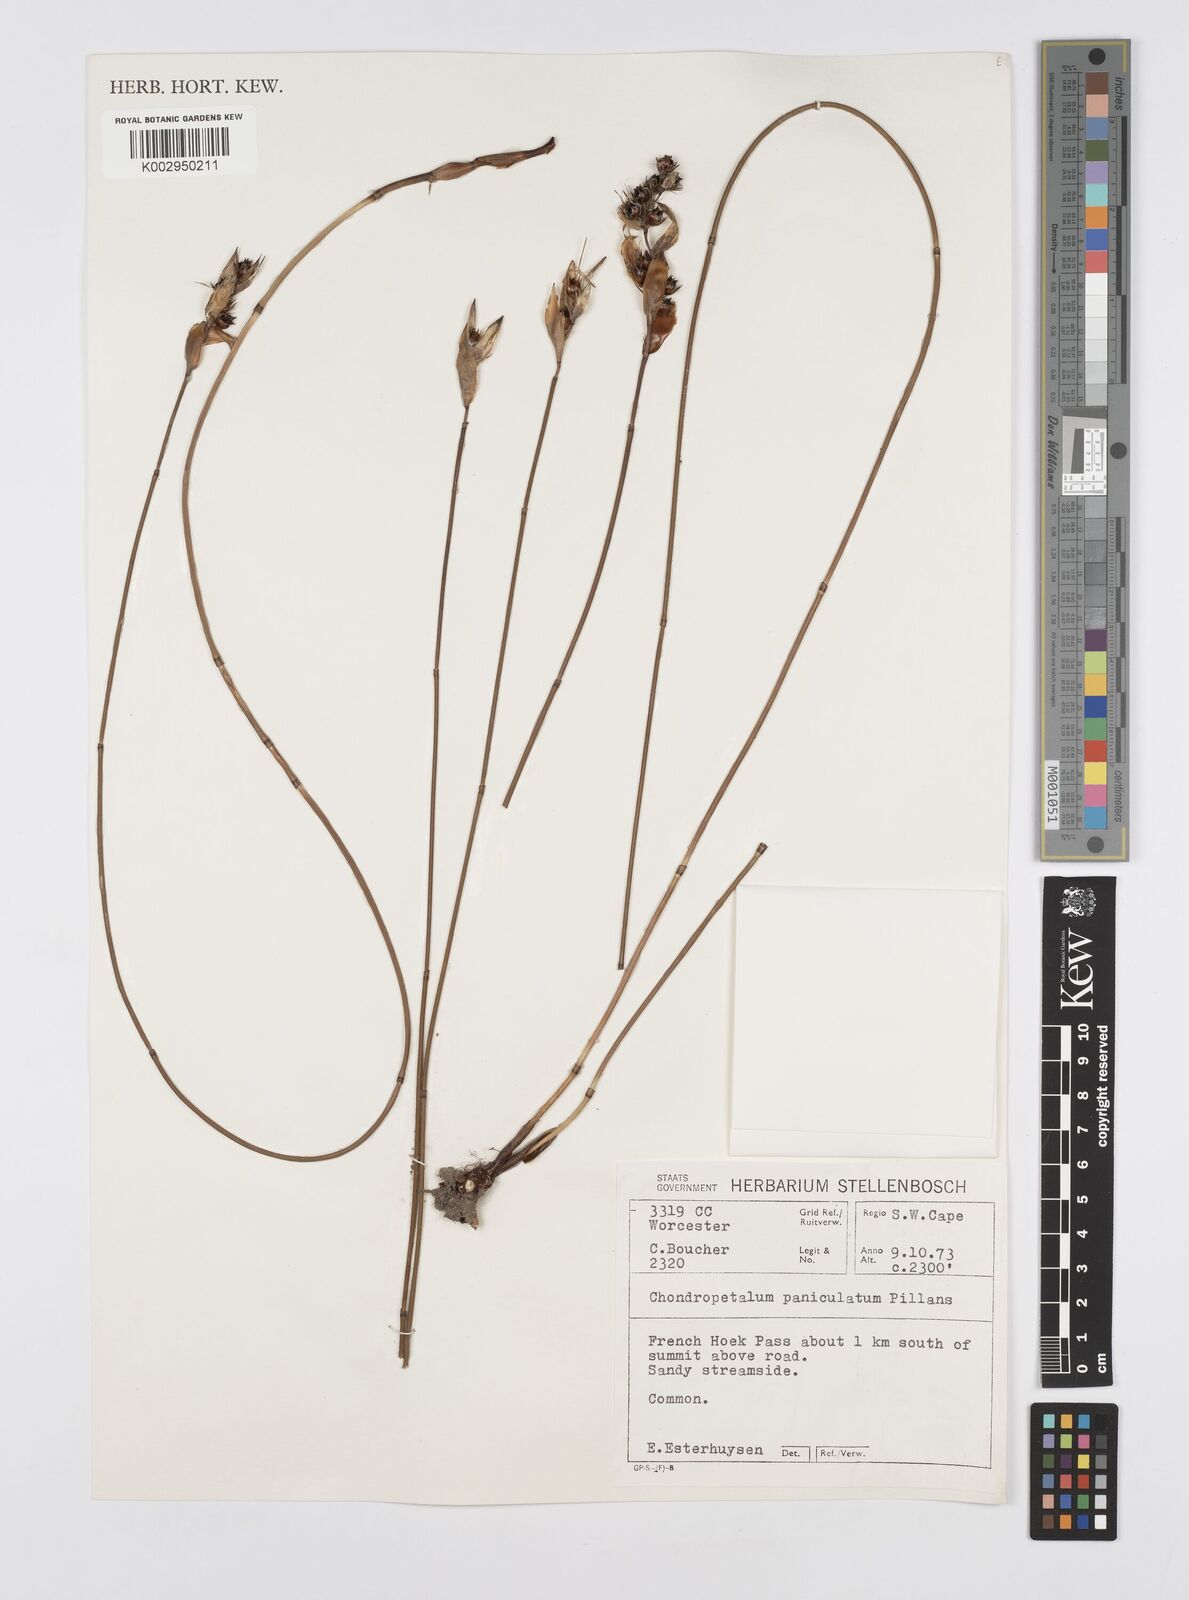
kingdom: Plantae
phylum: Tracheophyta
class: Liliopsida
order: Poales
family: Restionaceae
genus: Askidiosperma
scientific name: Askidiosperma paniculatum
